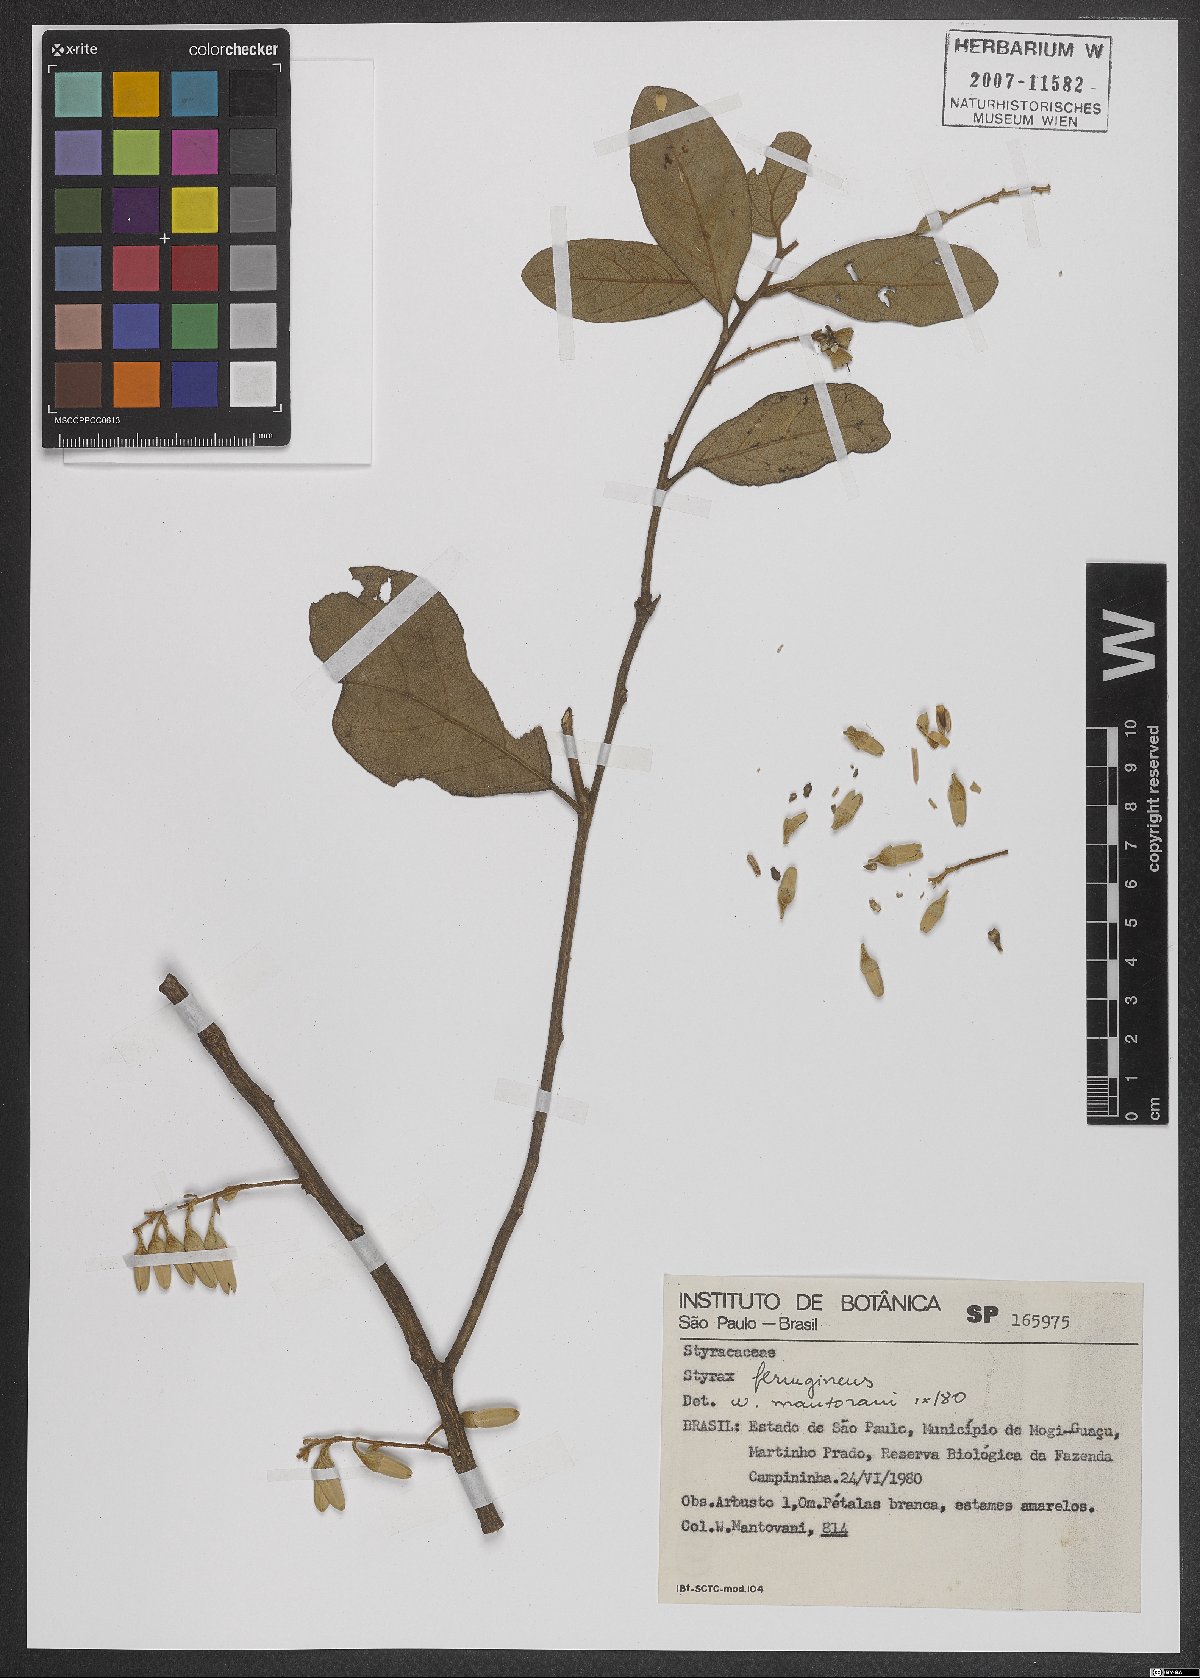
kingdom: Plantae
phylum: Tracheophyta
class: Magnoliopsida
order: Ericales
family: Styracaceae
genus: Styrax
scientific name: Styrax ferrugineus
